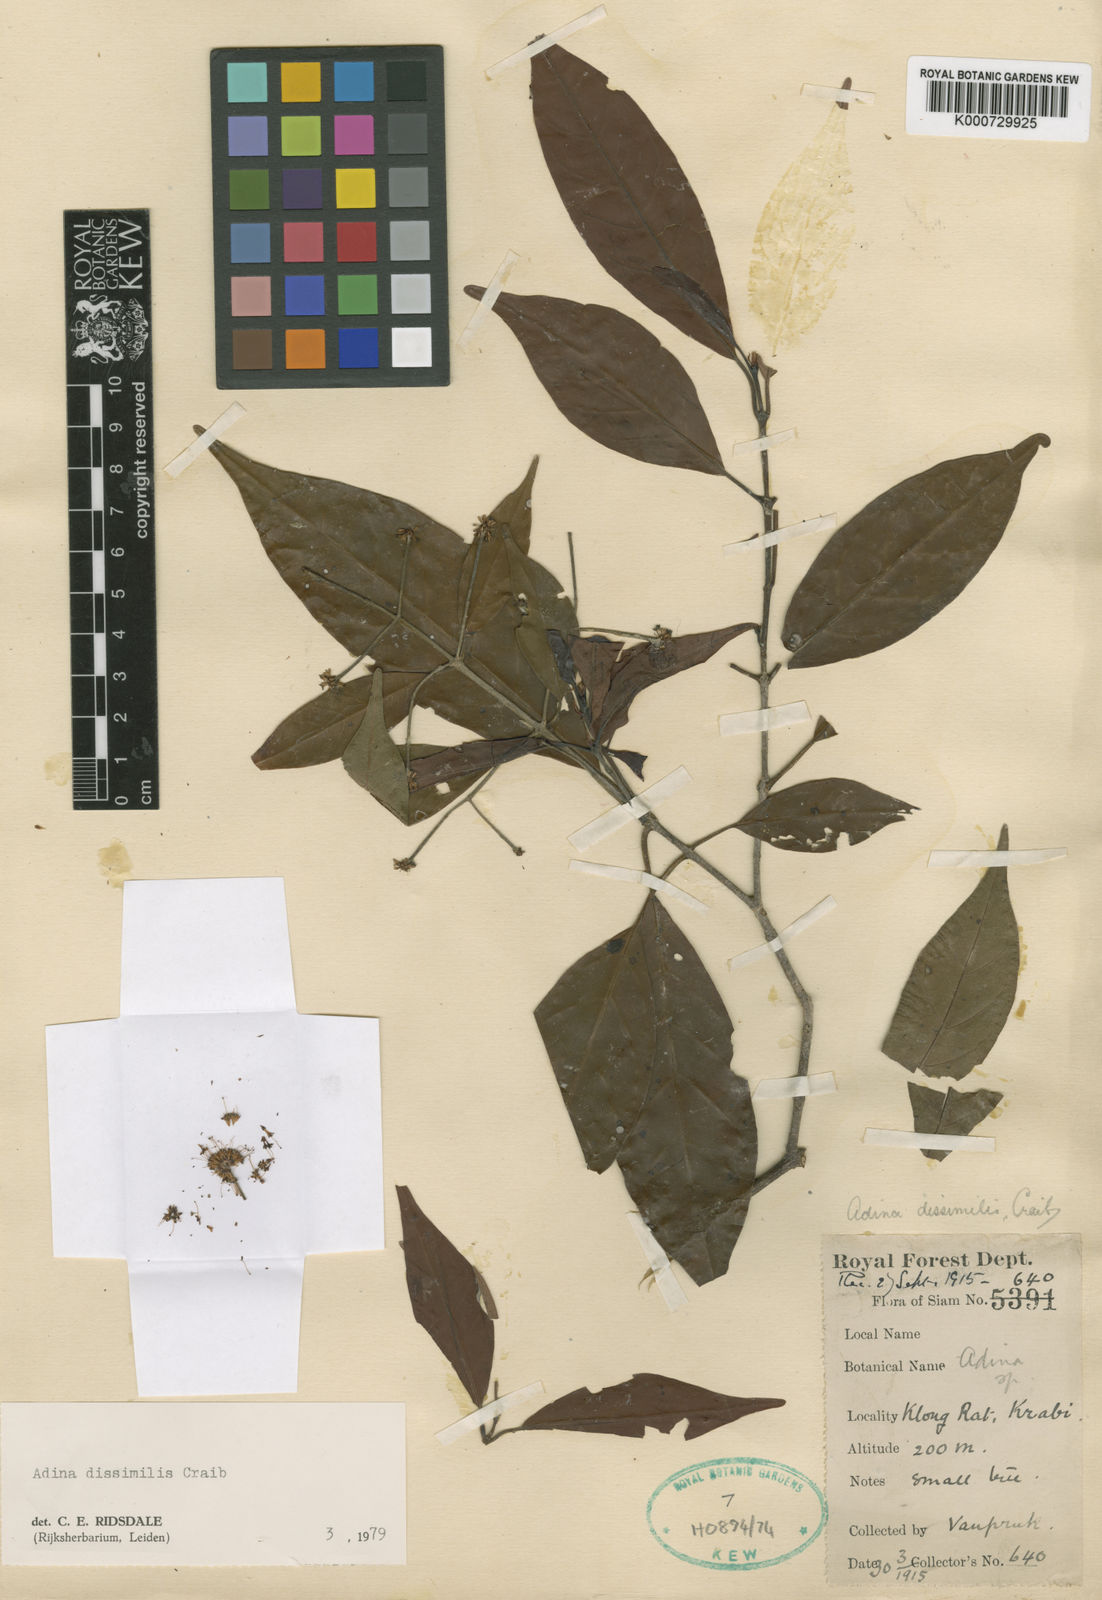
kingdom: Plantae
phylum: Tracheophyta
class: Magnoliopsida
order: Gentianales
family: Rubiaceae
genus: Adina
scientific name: Adina dissimilis
